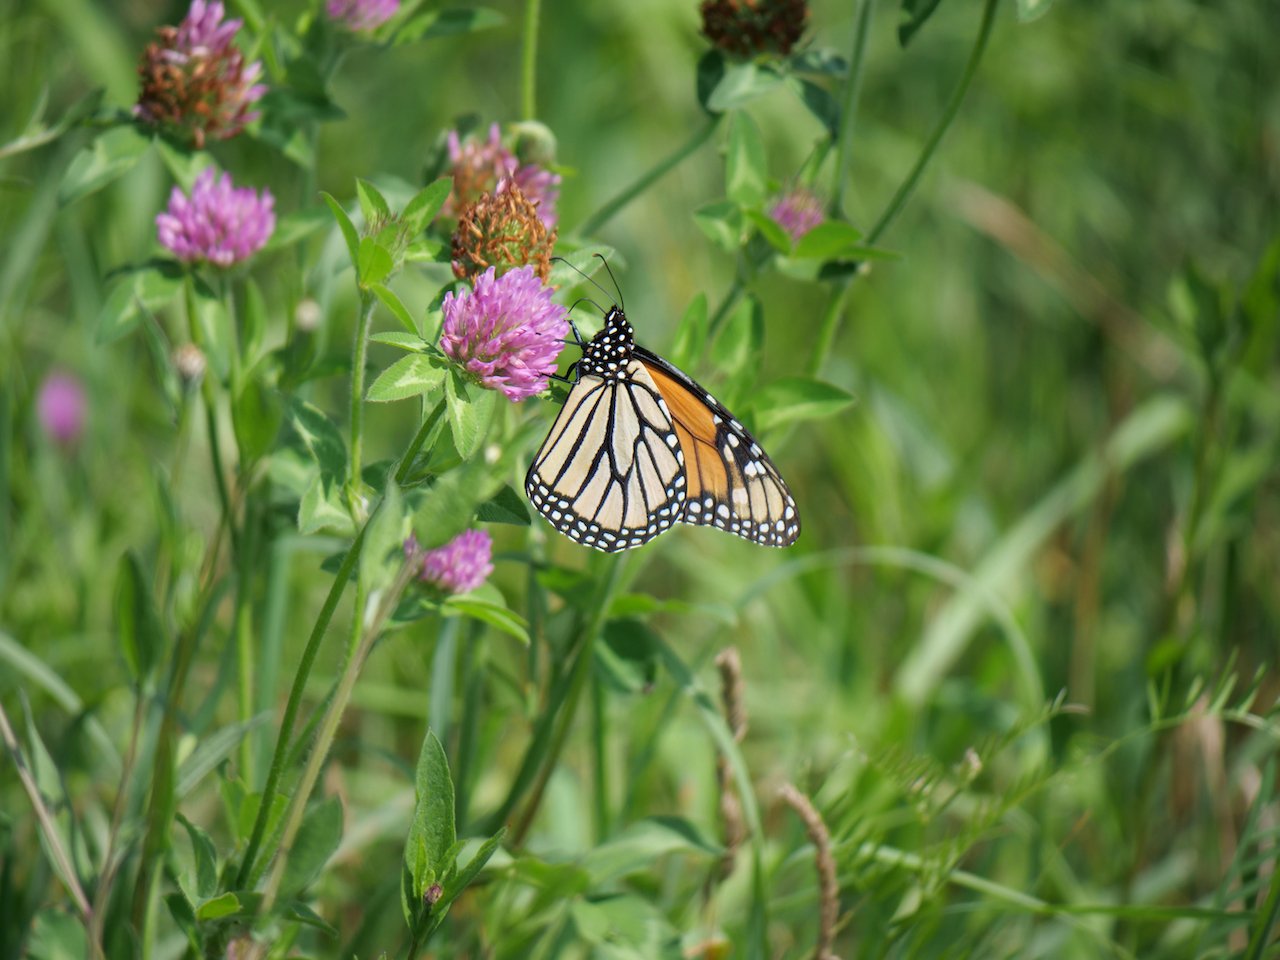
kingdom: Animalia
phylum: Arthropoda
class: Insecta
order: Lepidoptera
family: Nymphalidae
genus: Danaus
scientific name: Danaus plexippus
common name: Monarch
